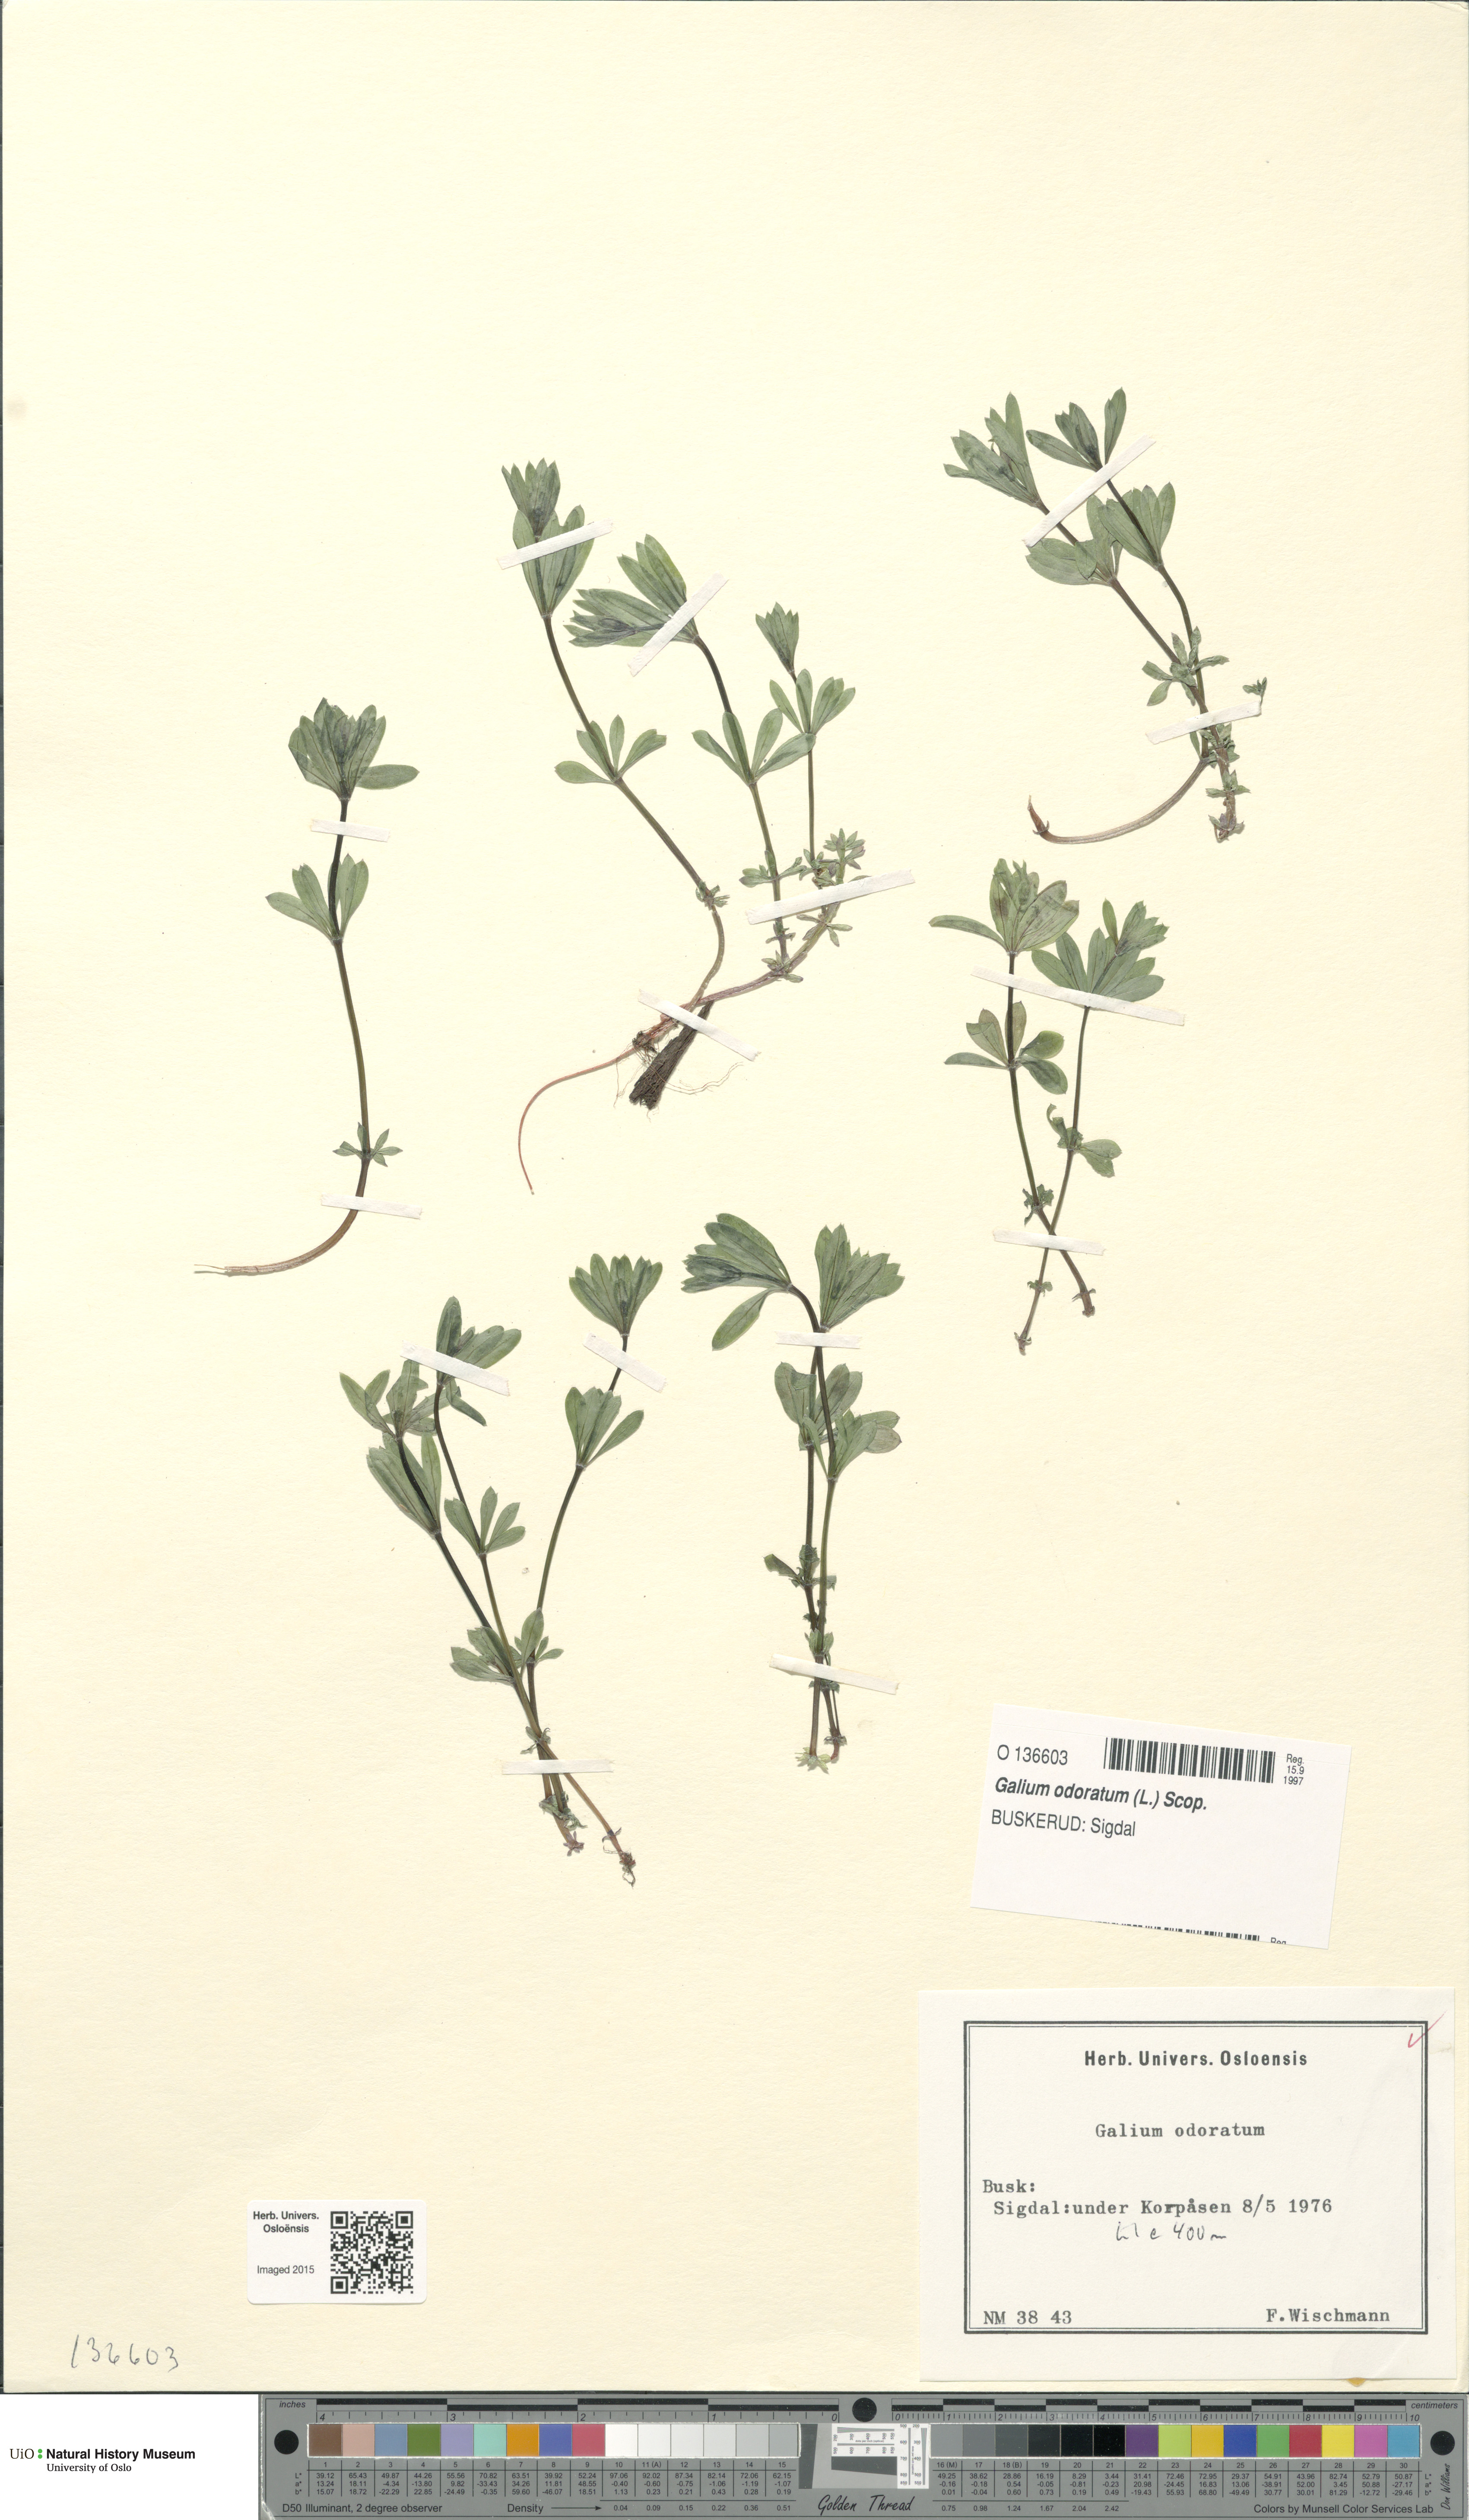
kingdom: Plantae
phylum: Tracheophyta
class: Magnoliopsida
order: Gentianales
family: Rubiaceae
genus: Galium
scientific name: Galium odoratum
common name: Sweet woodruff
